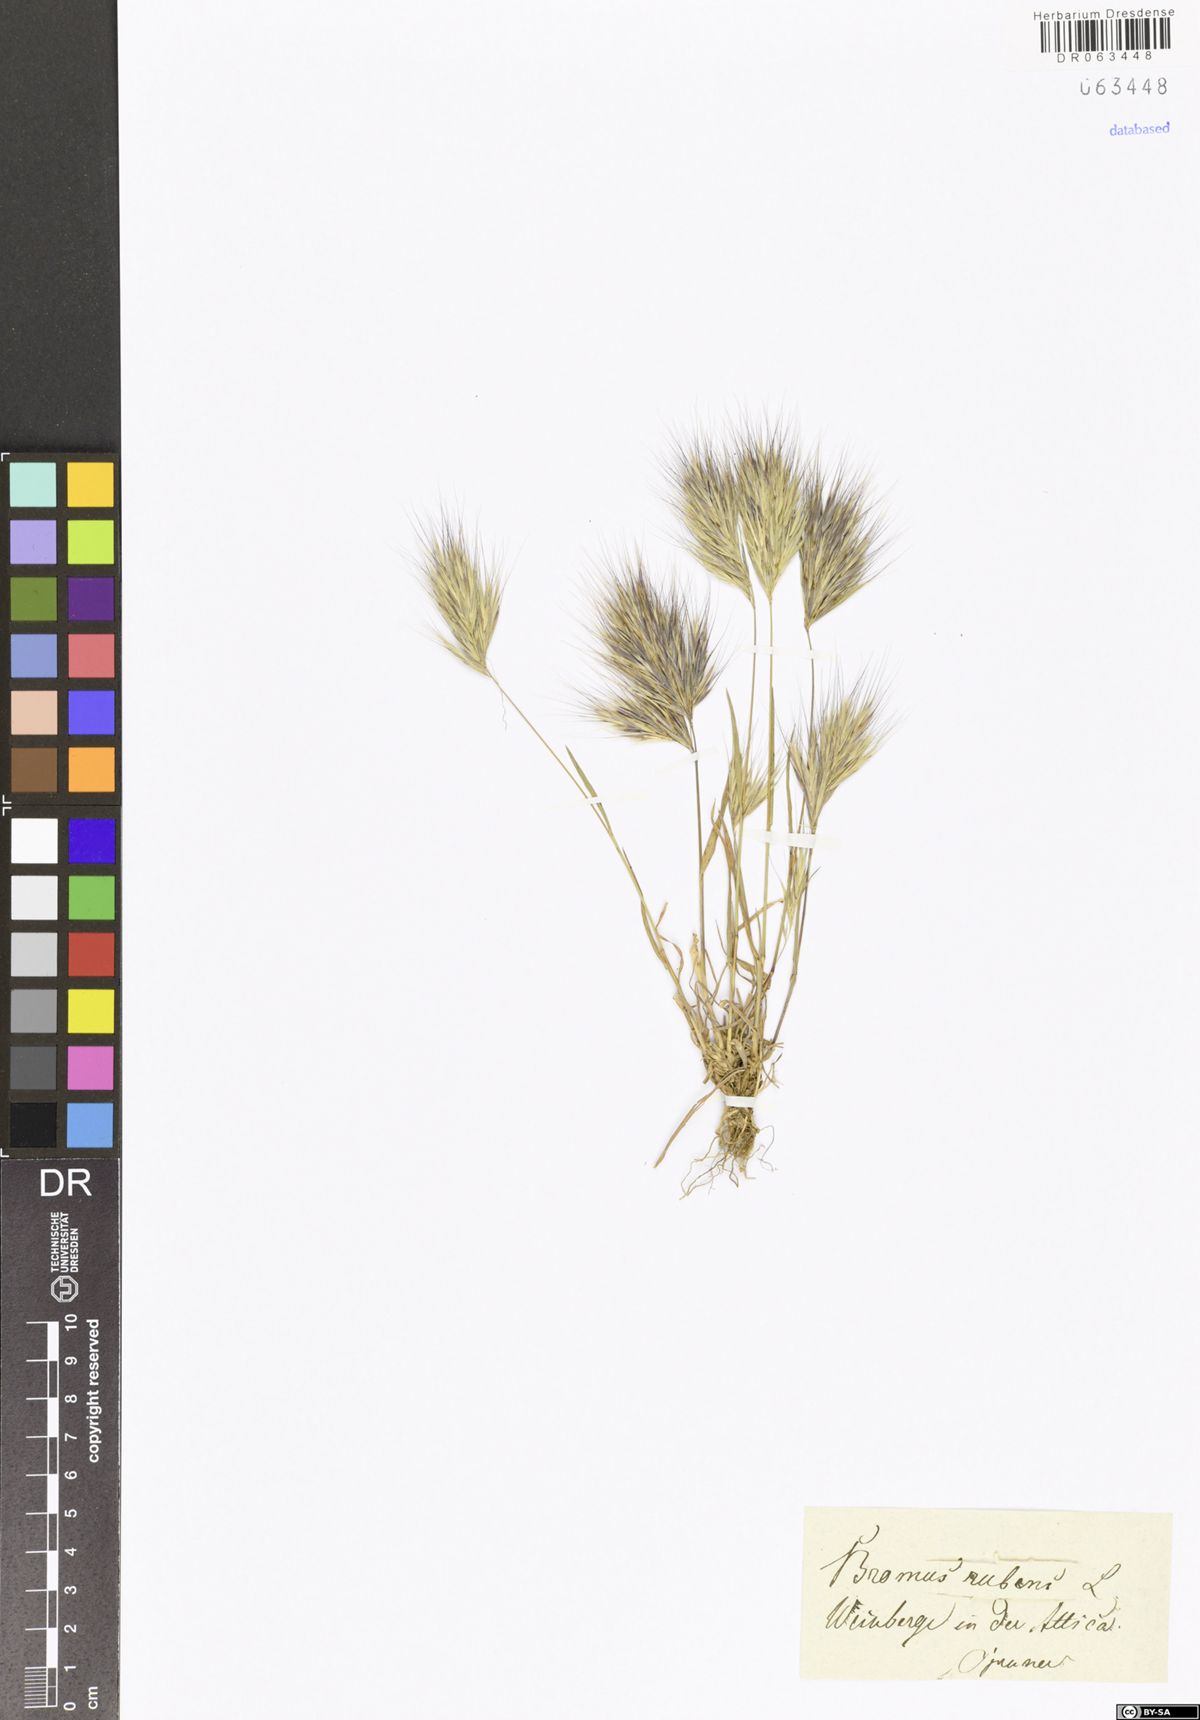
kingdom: Plantae
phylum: Tracheophyta
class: Liliopsida
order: Poales
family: Poaceae
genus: Bromus
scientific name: Bromus rubens
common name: Red brome
